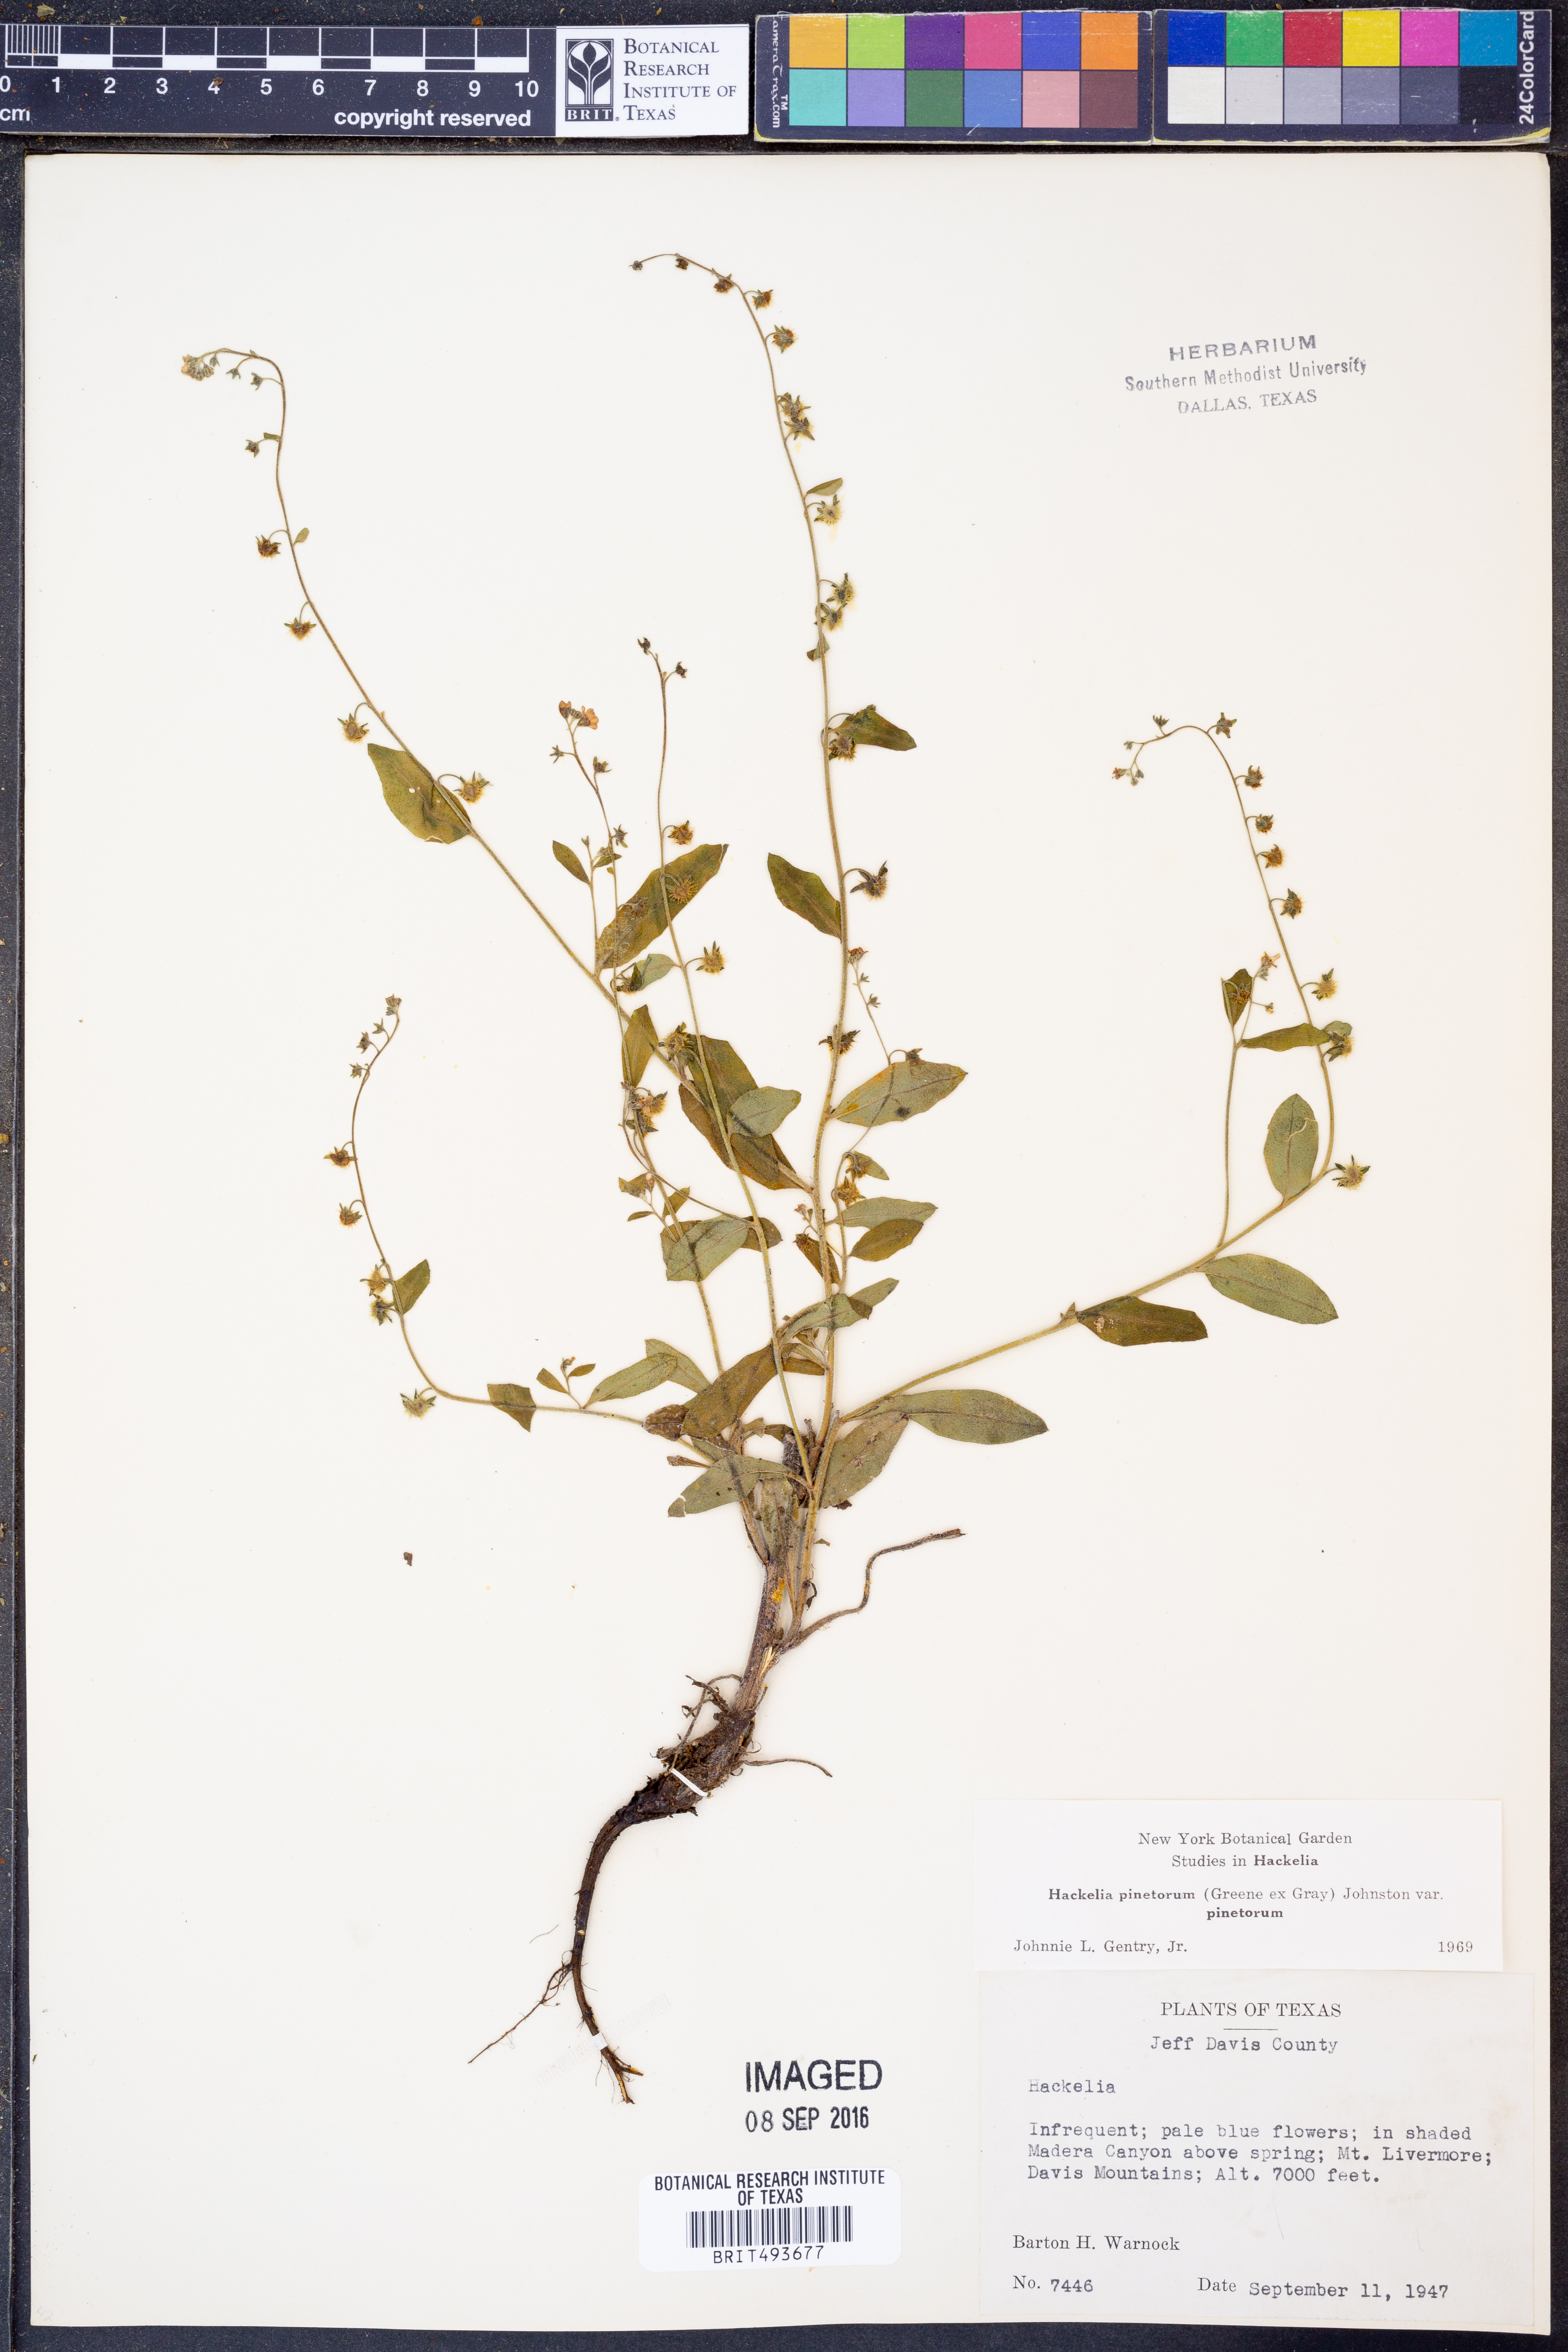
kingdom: Plantae
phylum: Tracheophyta
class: Magnoliopsida
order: Boraginales
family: Boraginaceae
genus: Hackelia
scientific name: Hackelia pinetorum
